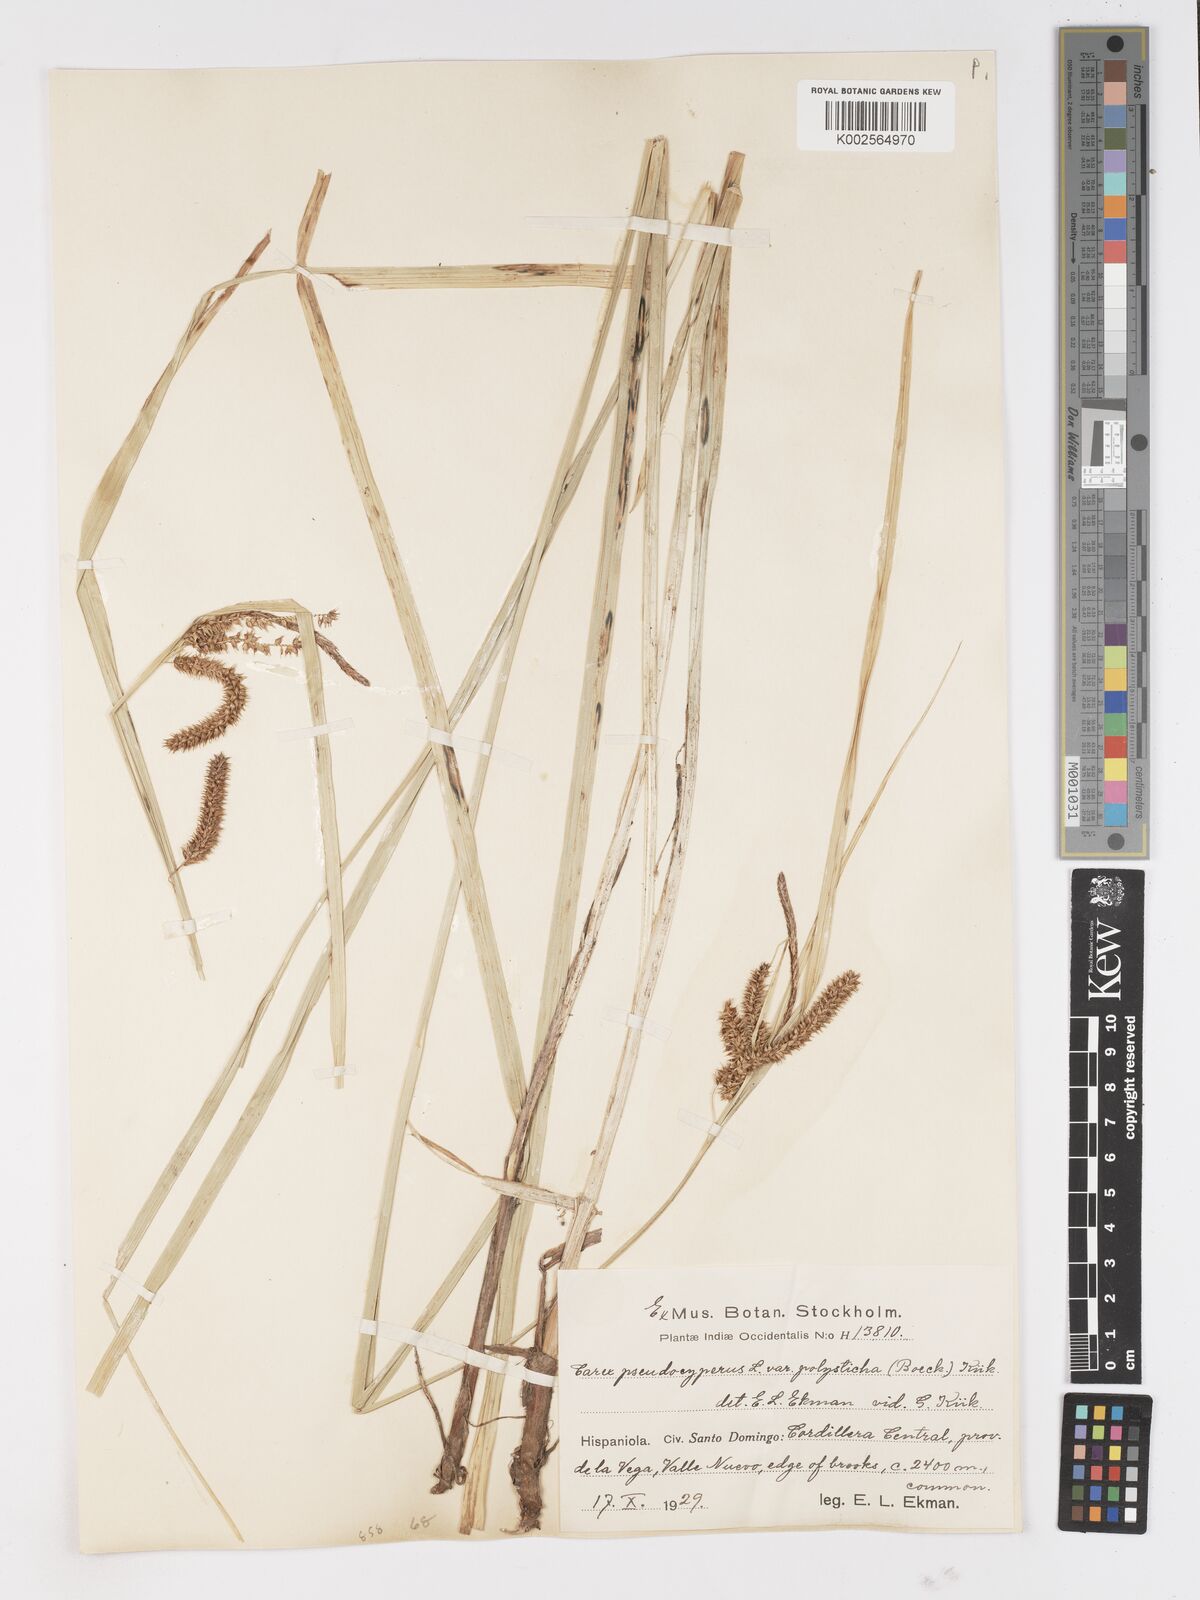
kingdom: Plantae
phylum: Tracheophyta
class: Liliopsida
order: Poales
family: Cyperaceae
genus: Carex
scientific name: Carex polysticha
